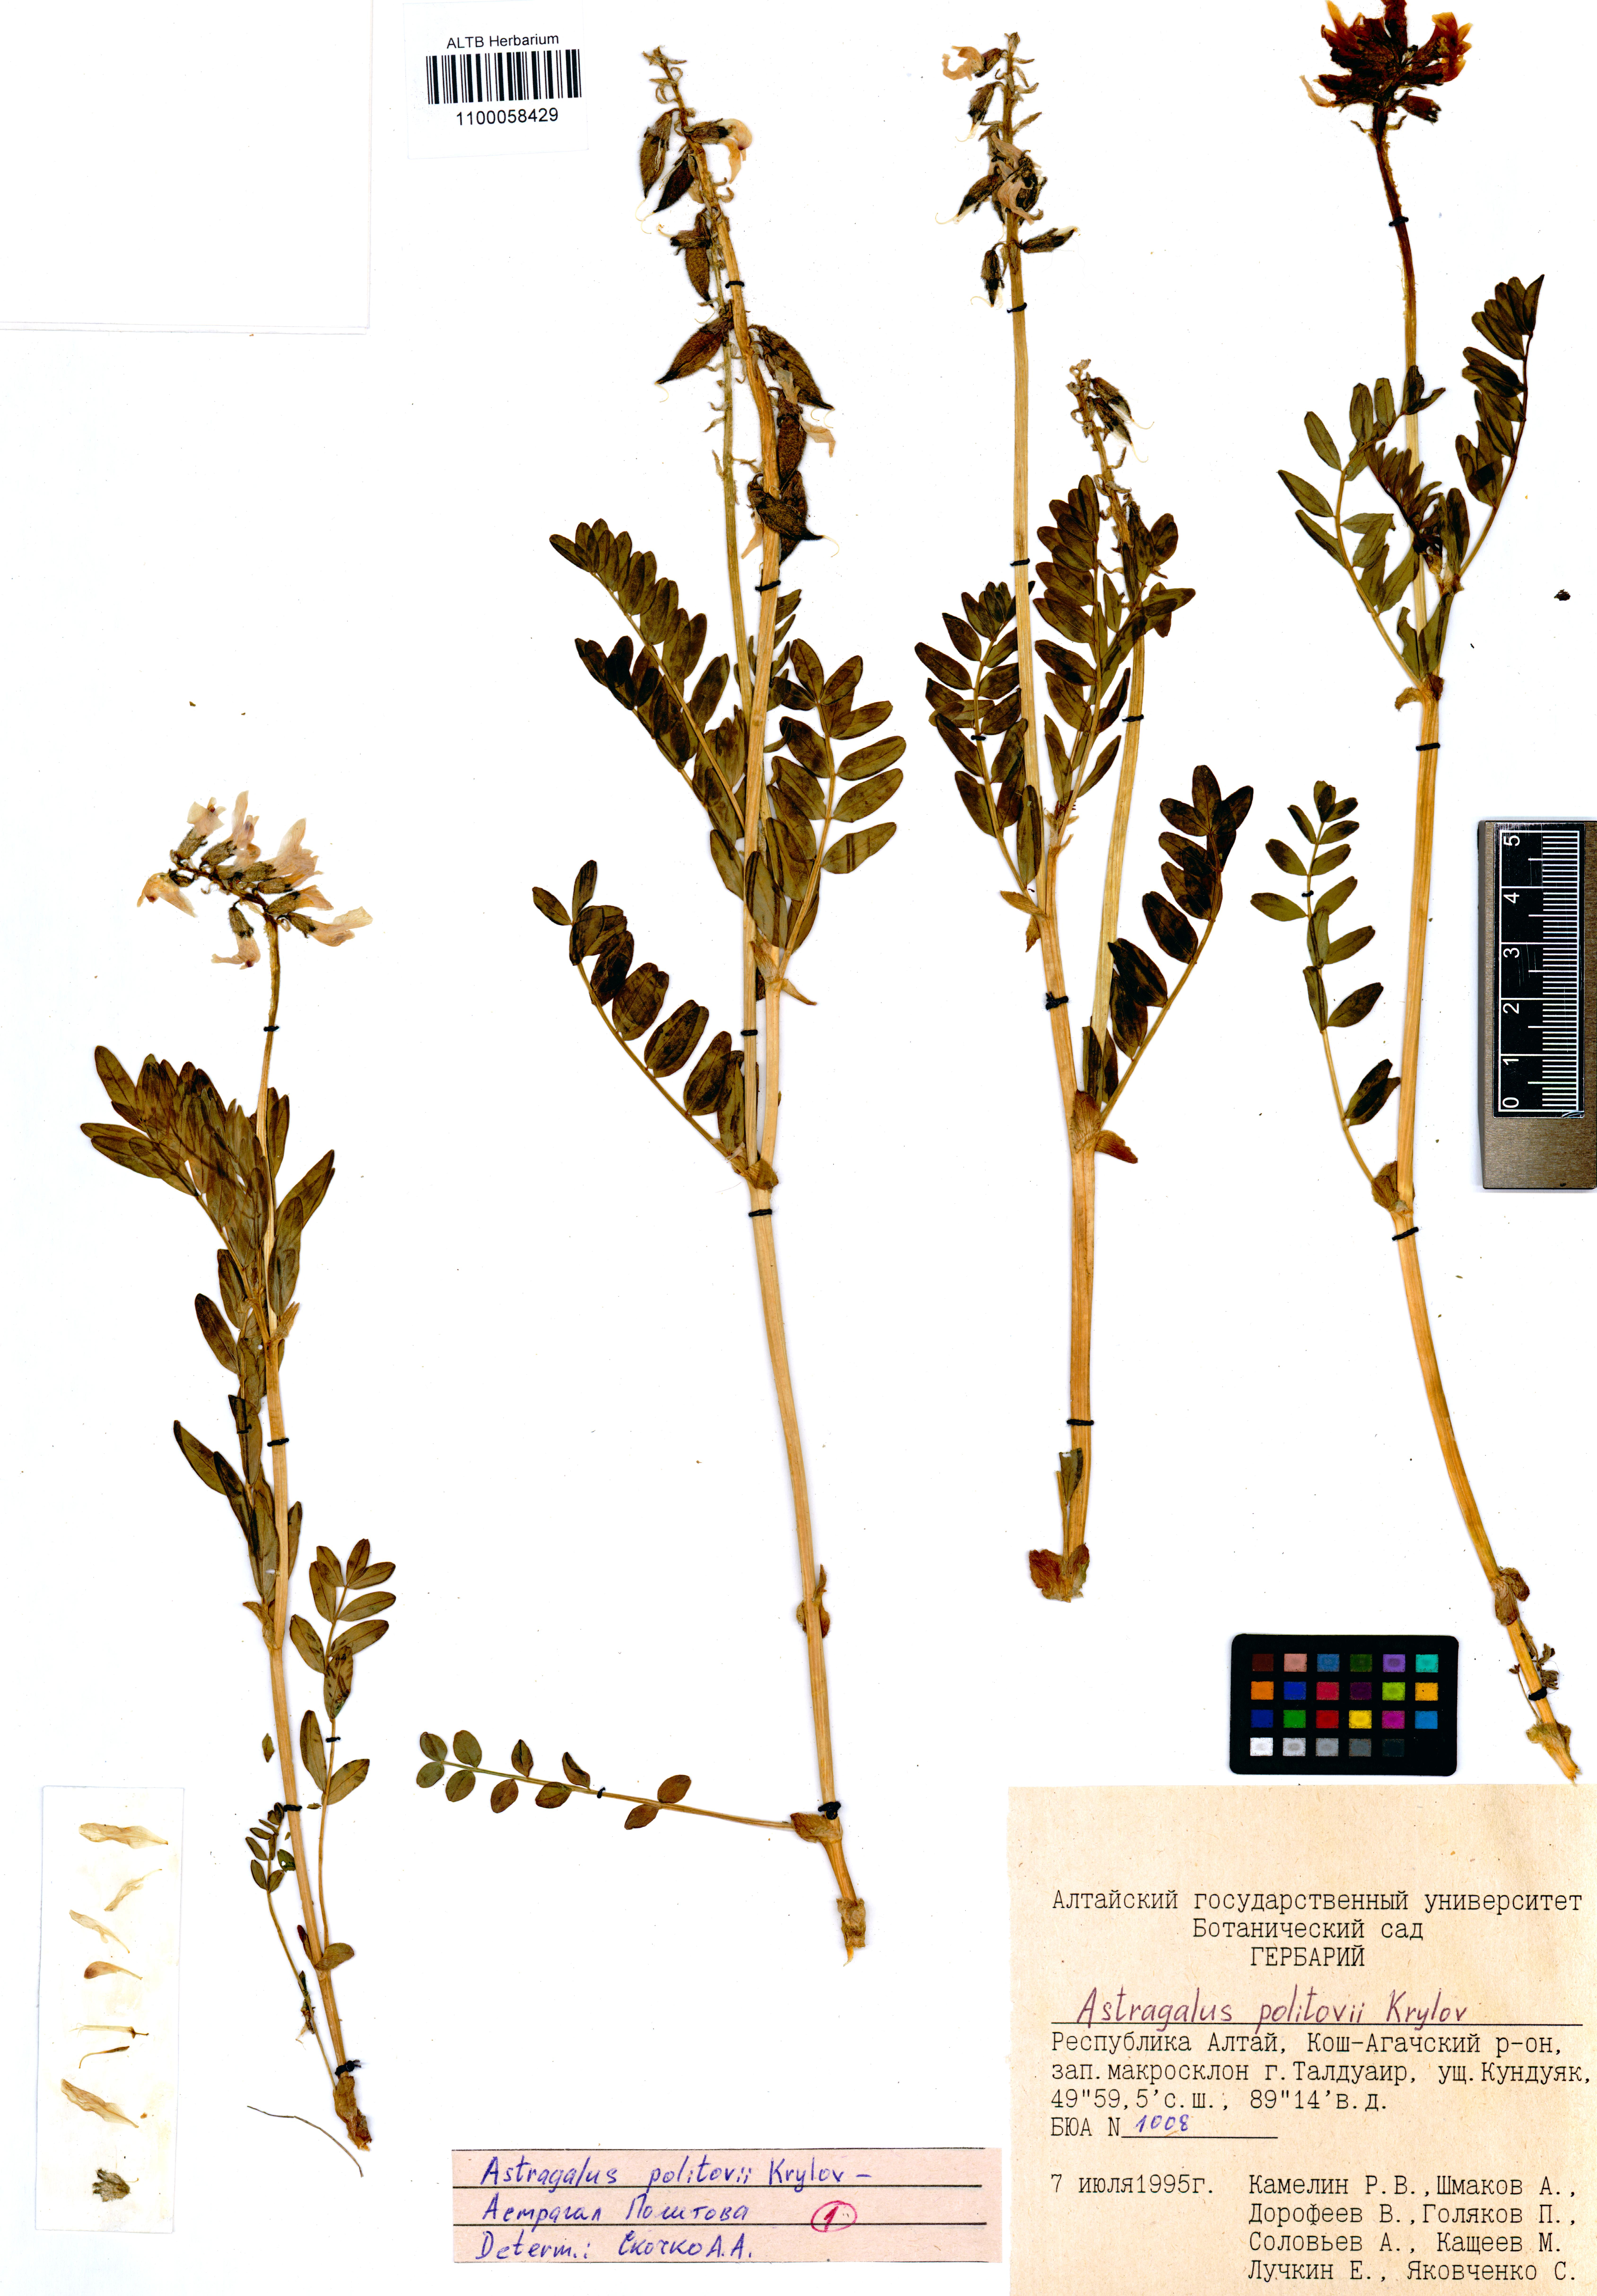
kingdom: Plantae
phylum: Tracheophyta
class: Magnoliopsida
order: Fabales
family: Fabaceae
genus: Astragalus
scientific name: Astragalus politovii
